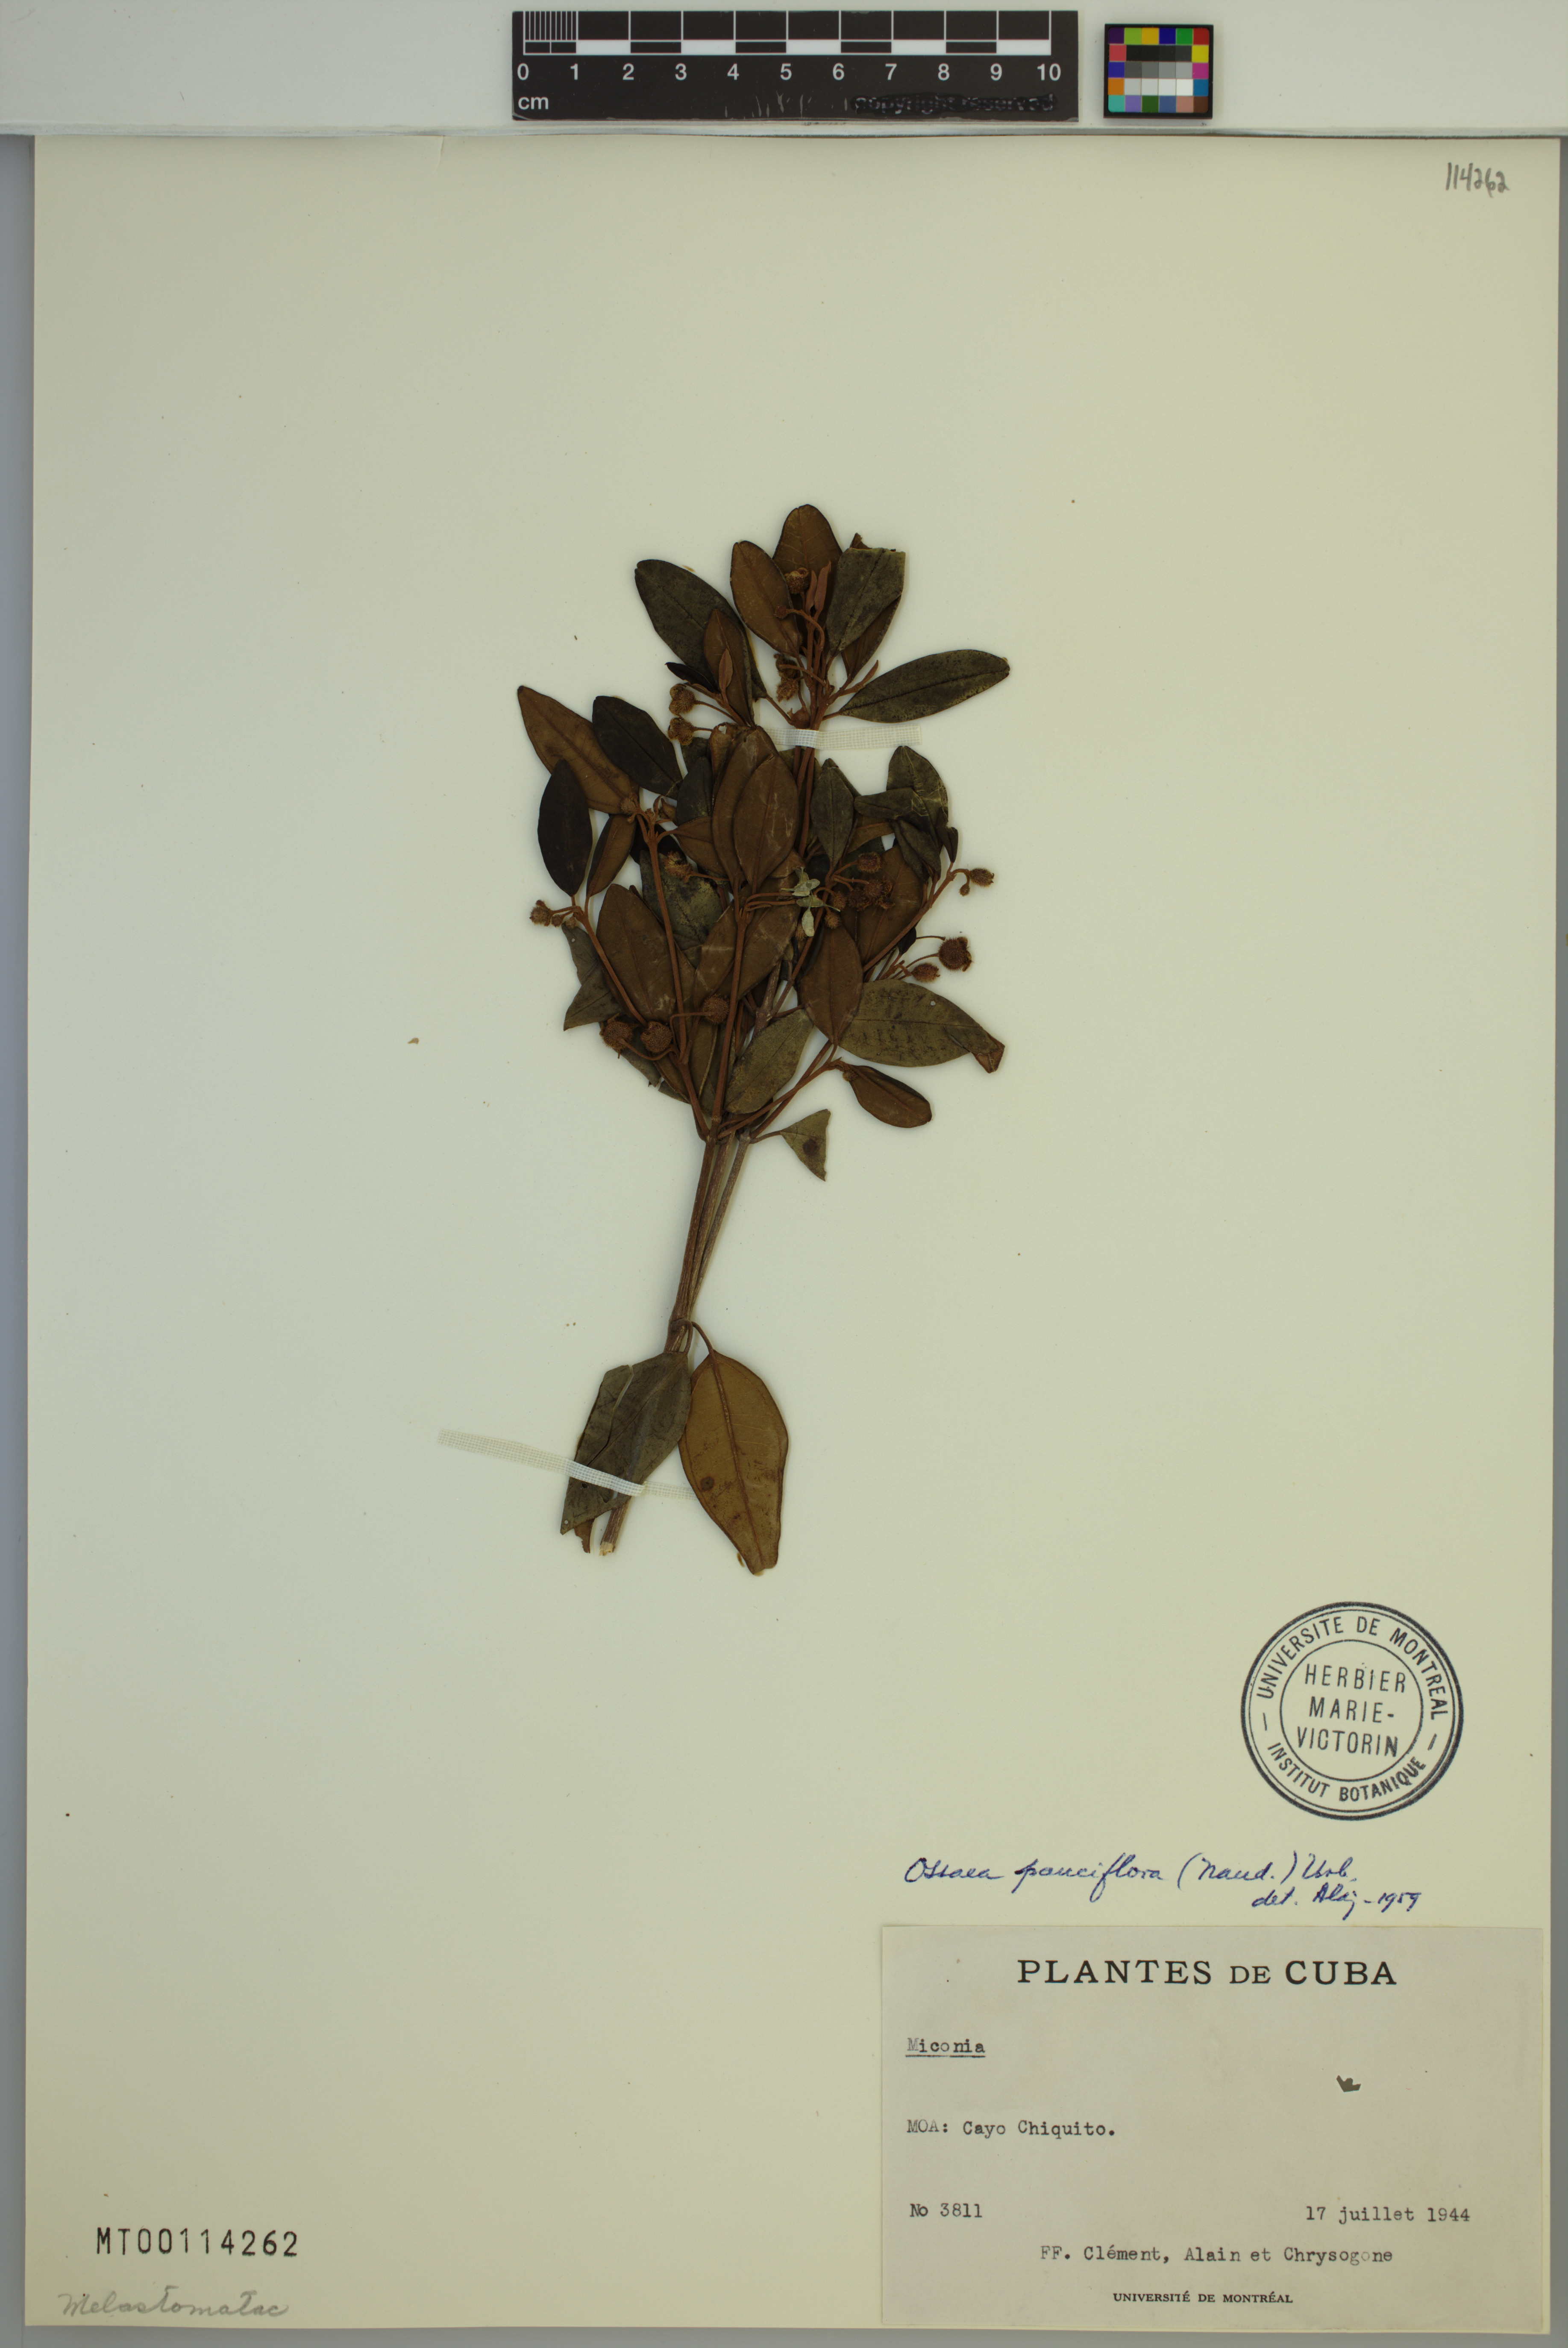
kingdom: Plantae
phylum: Tracheophyta
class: Magnoliopsida
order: Myrtales
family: Melastomataceae
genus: Miconia
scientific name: Miconia echinata
